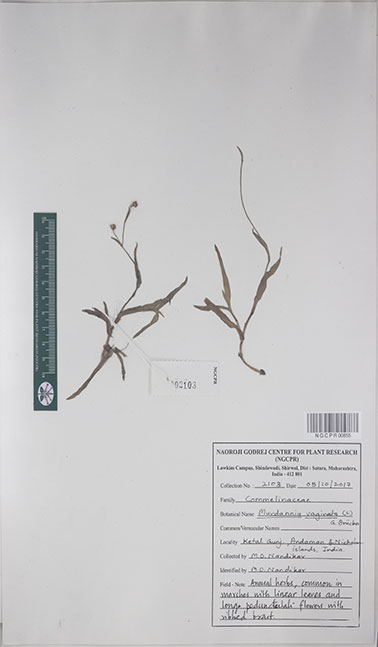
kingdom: Plantae
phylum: Tracheophyta
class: Liliopsida
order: Commelinales
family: Commelinaceae
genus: Murdannia
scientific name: Murdannia vaginata
